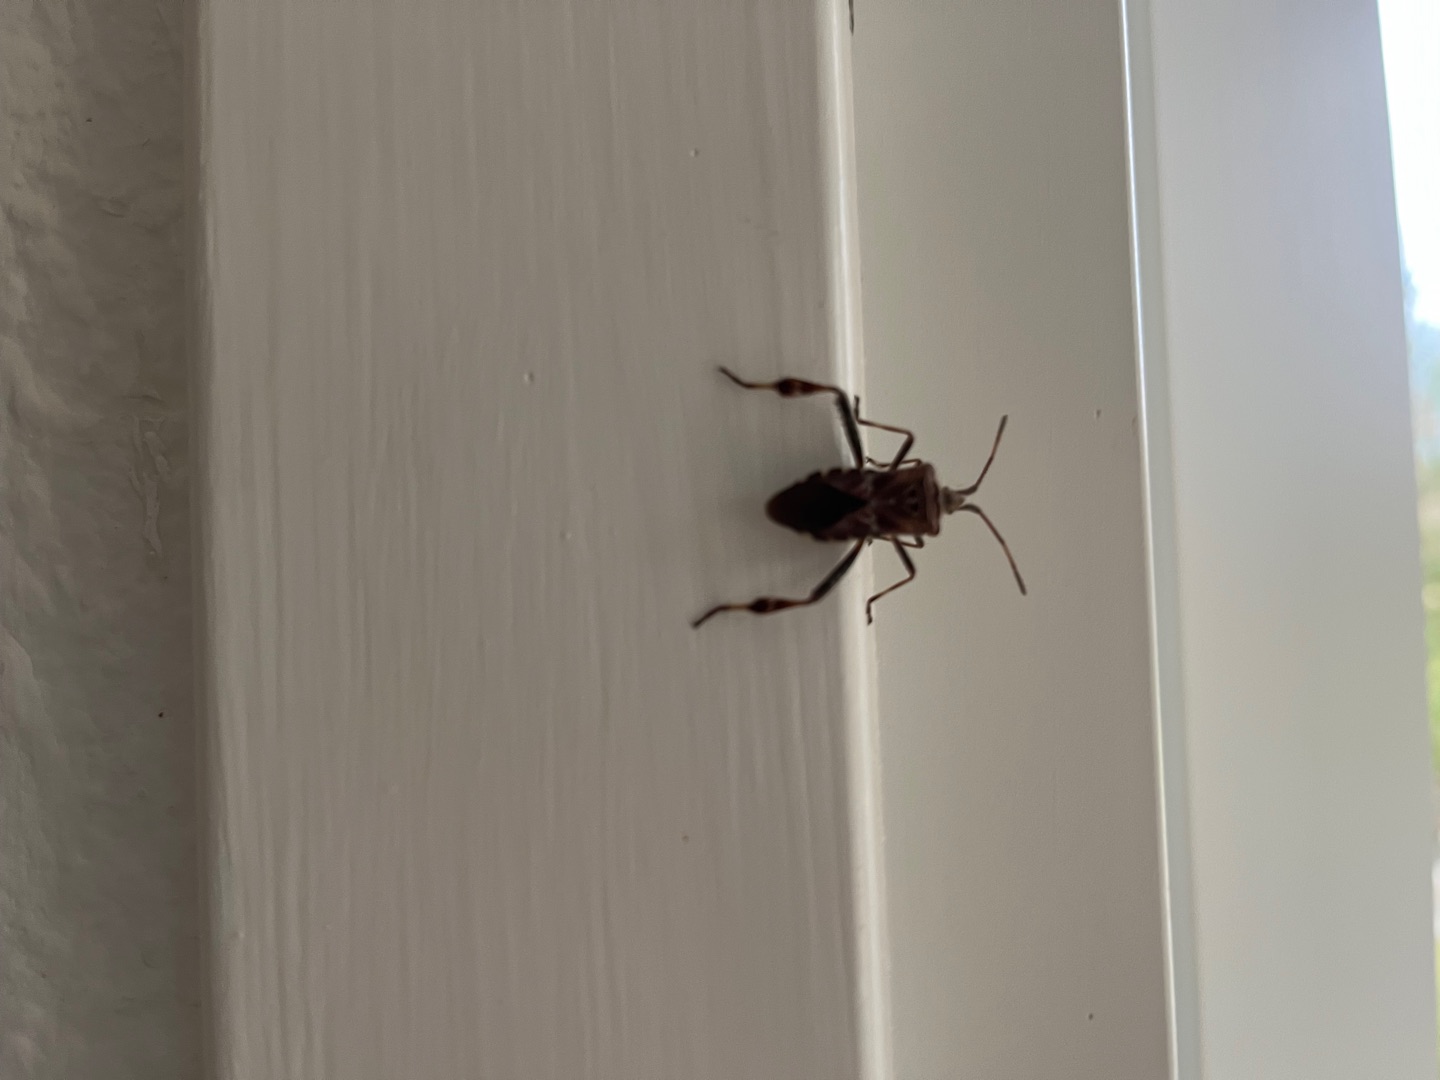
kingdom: Animalia
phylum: Arthropoda
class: Insecta
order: Hemiptera
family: Coreidae
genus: Leptoglossus
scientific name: Leptoglossus occidentalis
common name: Amerikansk fyrretæge
